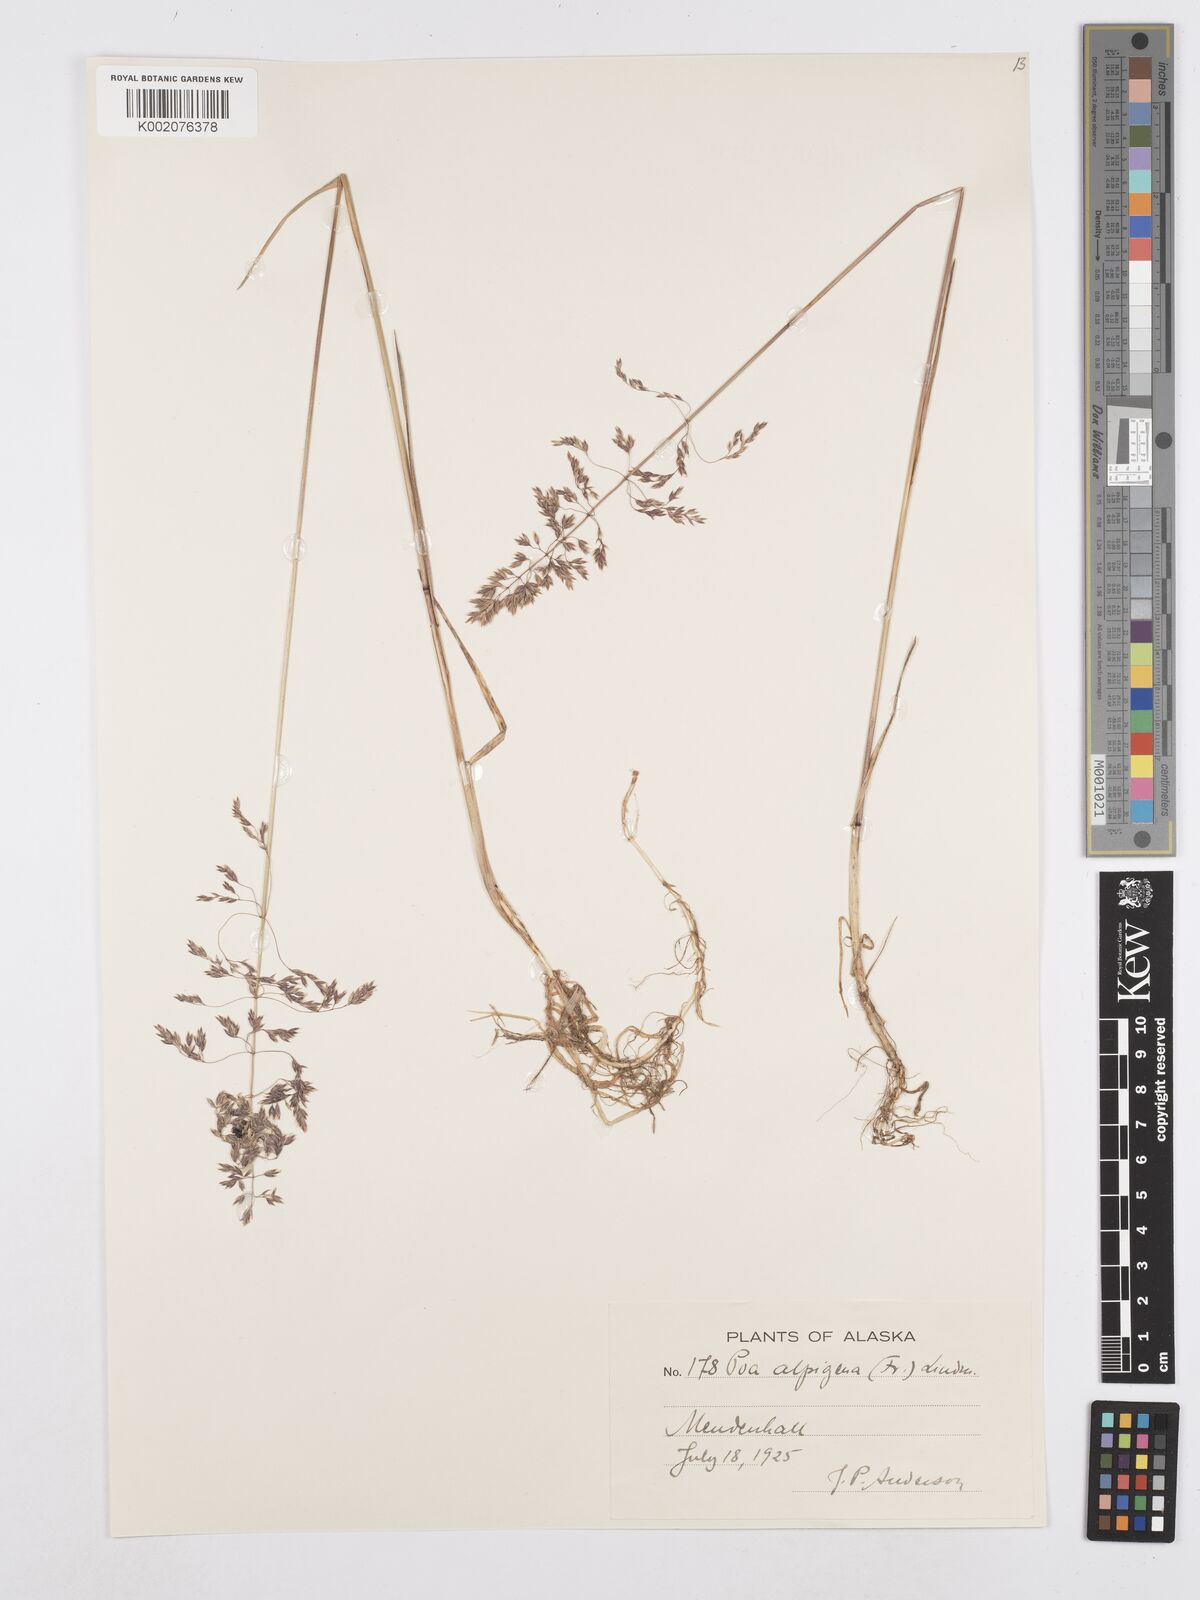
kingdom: Plantae
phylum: Tracheophyta
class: Liliopsida
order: Poales
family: Poaceae
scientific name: Poaceae
